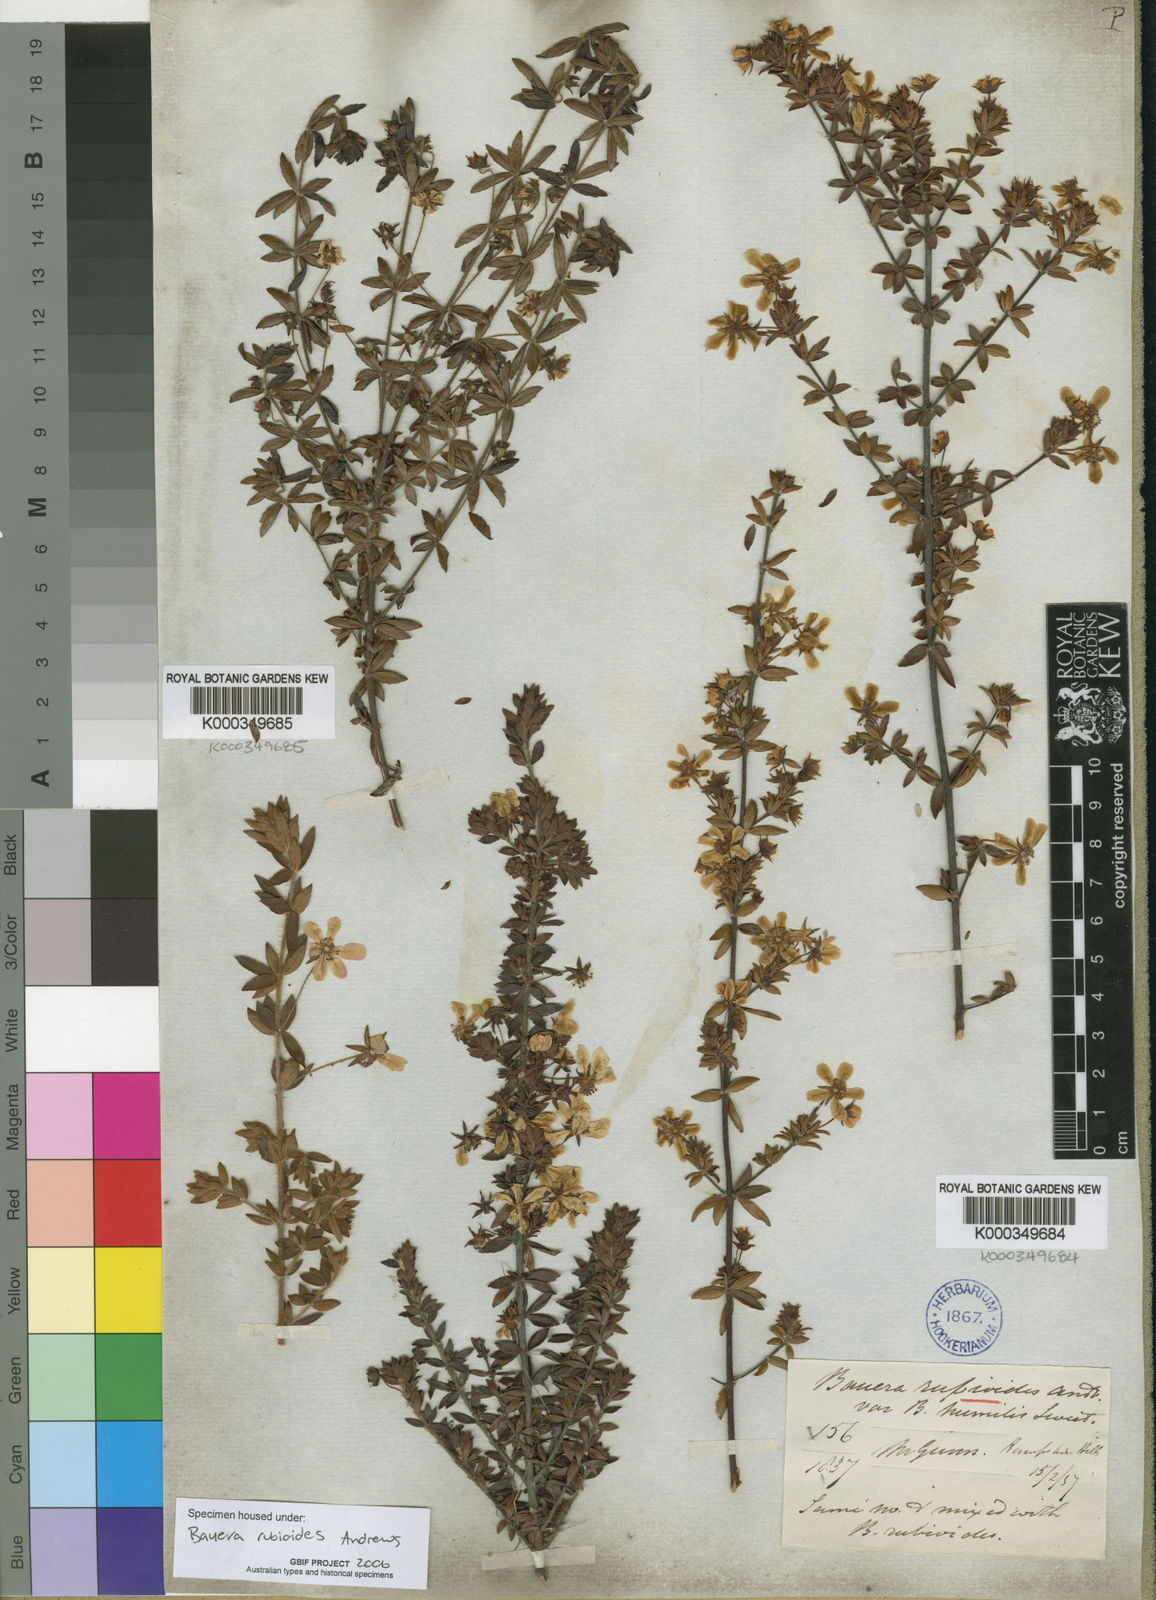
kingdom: Plantae
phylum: Tracheophyta
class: Magnoliopsida
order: Oxalidales
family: Cunoniaceae
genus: Bauera
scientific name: Bauera rubioides
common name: River-rose
